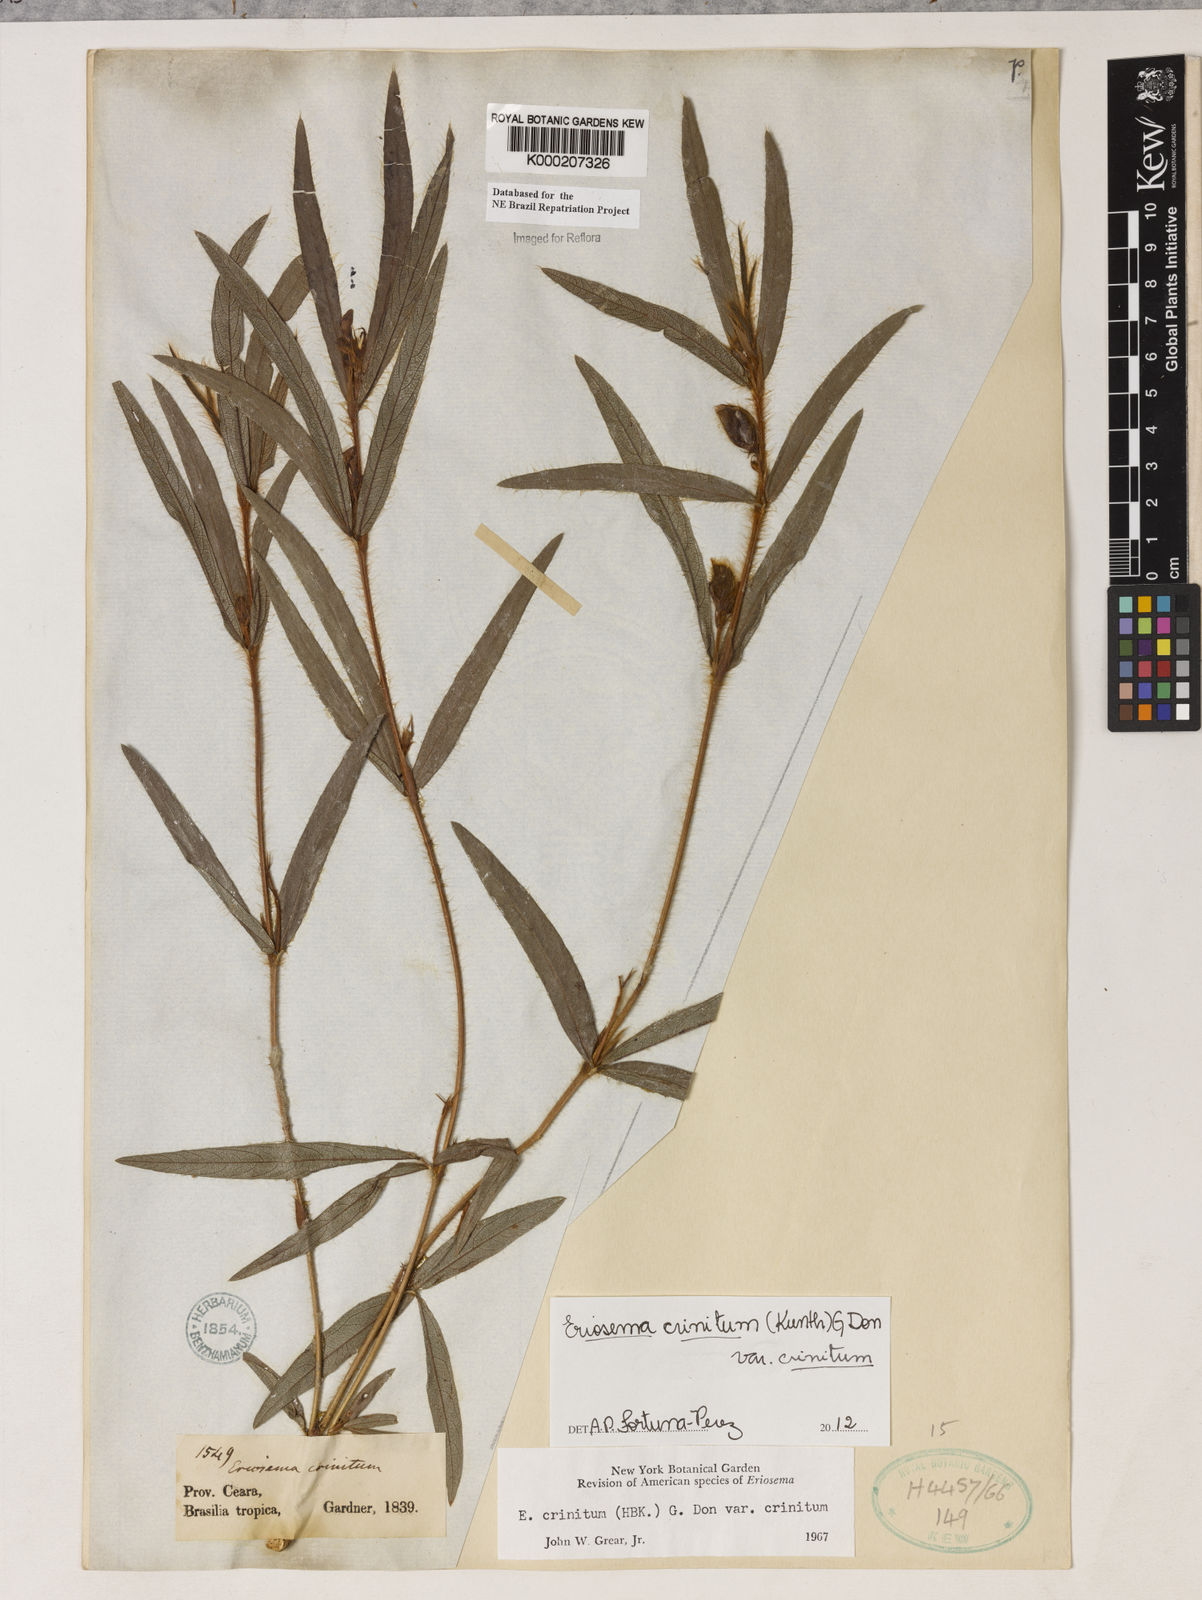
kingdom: Plantae
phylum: Tracheophyta
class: Magnoliopsida
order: Fabales
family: Fabaceae
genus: Eriosema
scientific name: Eriosema crinitum
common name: Sand pea
